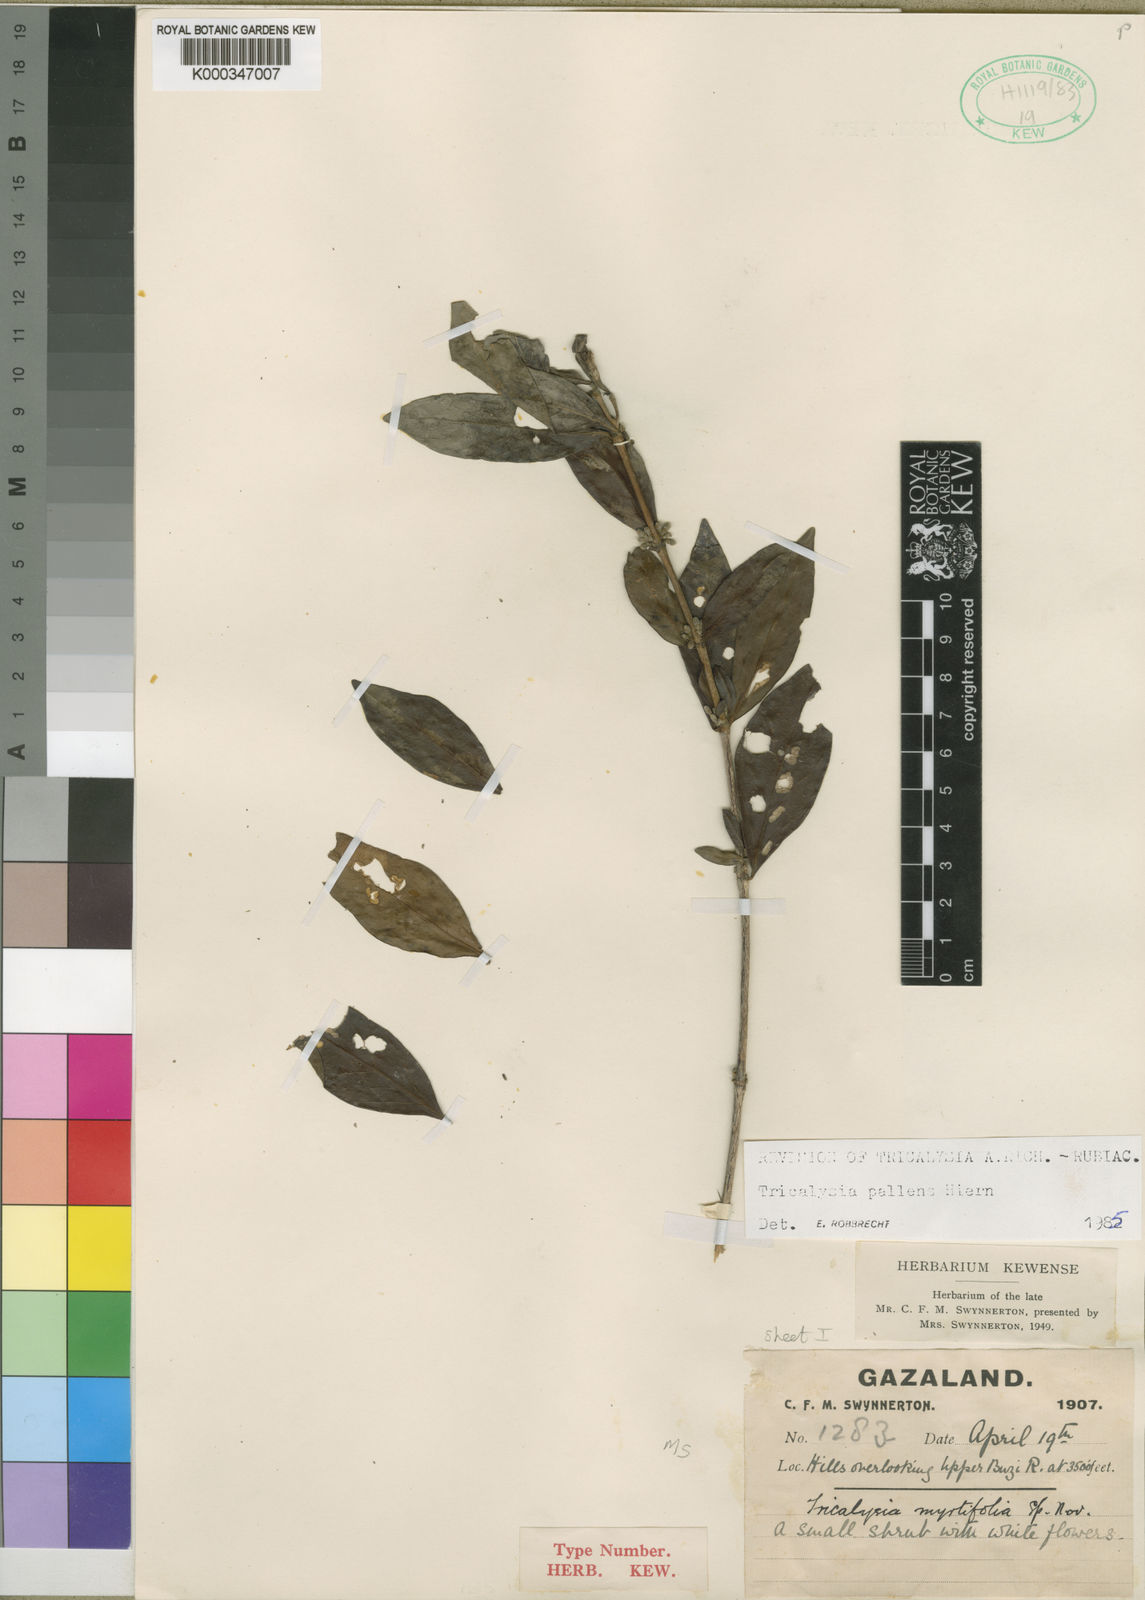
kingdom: Plantae
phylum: Tracheophyta
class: Magnoliopsida
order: Gentianales
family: Rubiaceae
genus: Tricalysia
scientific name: Tricalysia pallens
